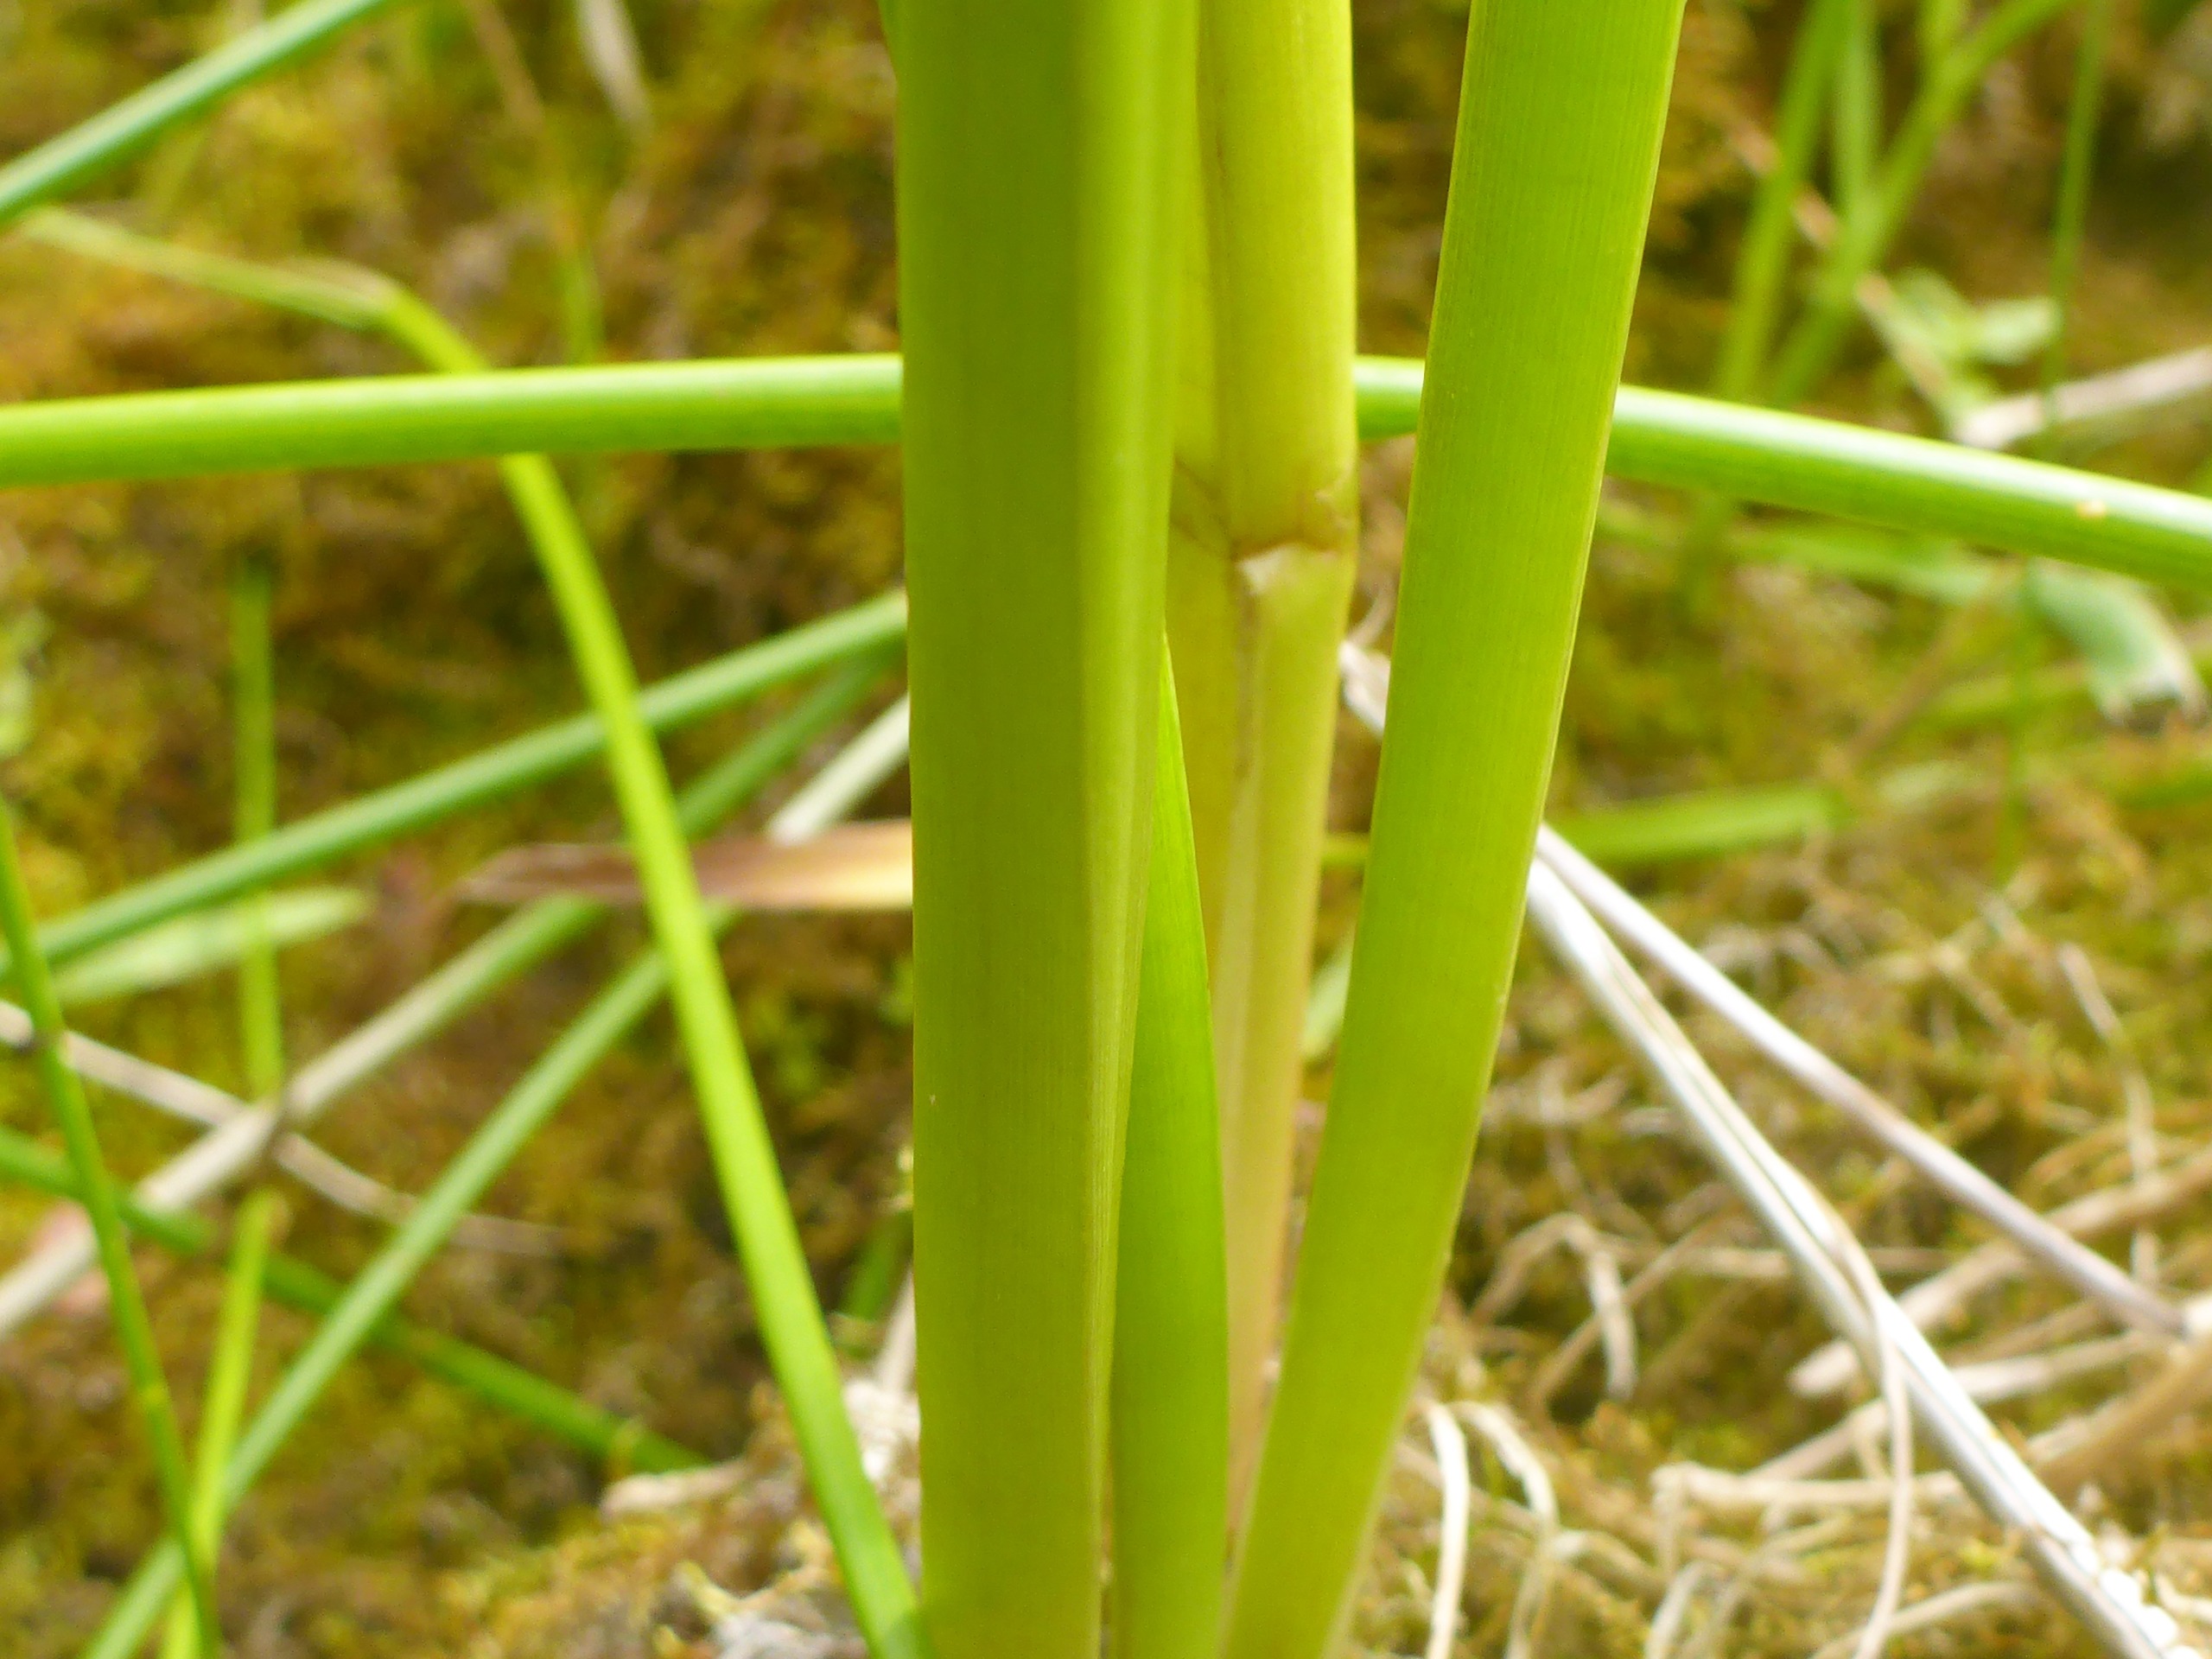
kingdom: Plantae
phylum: Tracheophyta
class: Liliopsida
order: Alismatales
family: Butomaceae
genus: Butomus
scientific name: Butomus umbellatus
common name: Brudelys
